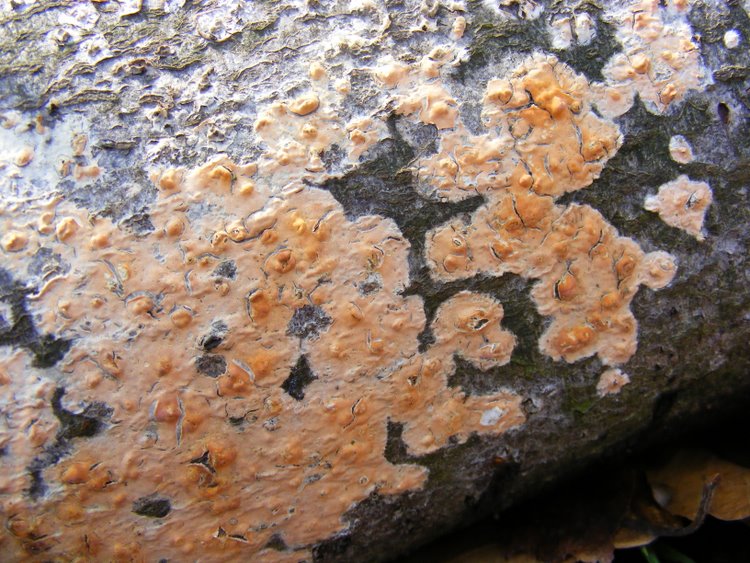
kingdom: Fungi
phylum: Basidiomycota
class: Agaricomycetes
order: Russulales
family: Peniophoraceae
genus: Peniophora
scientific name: Peniophora incarnata
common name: laksefarvet voksskind
